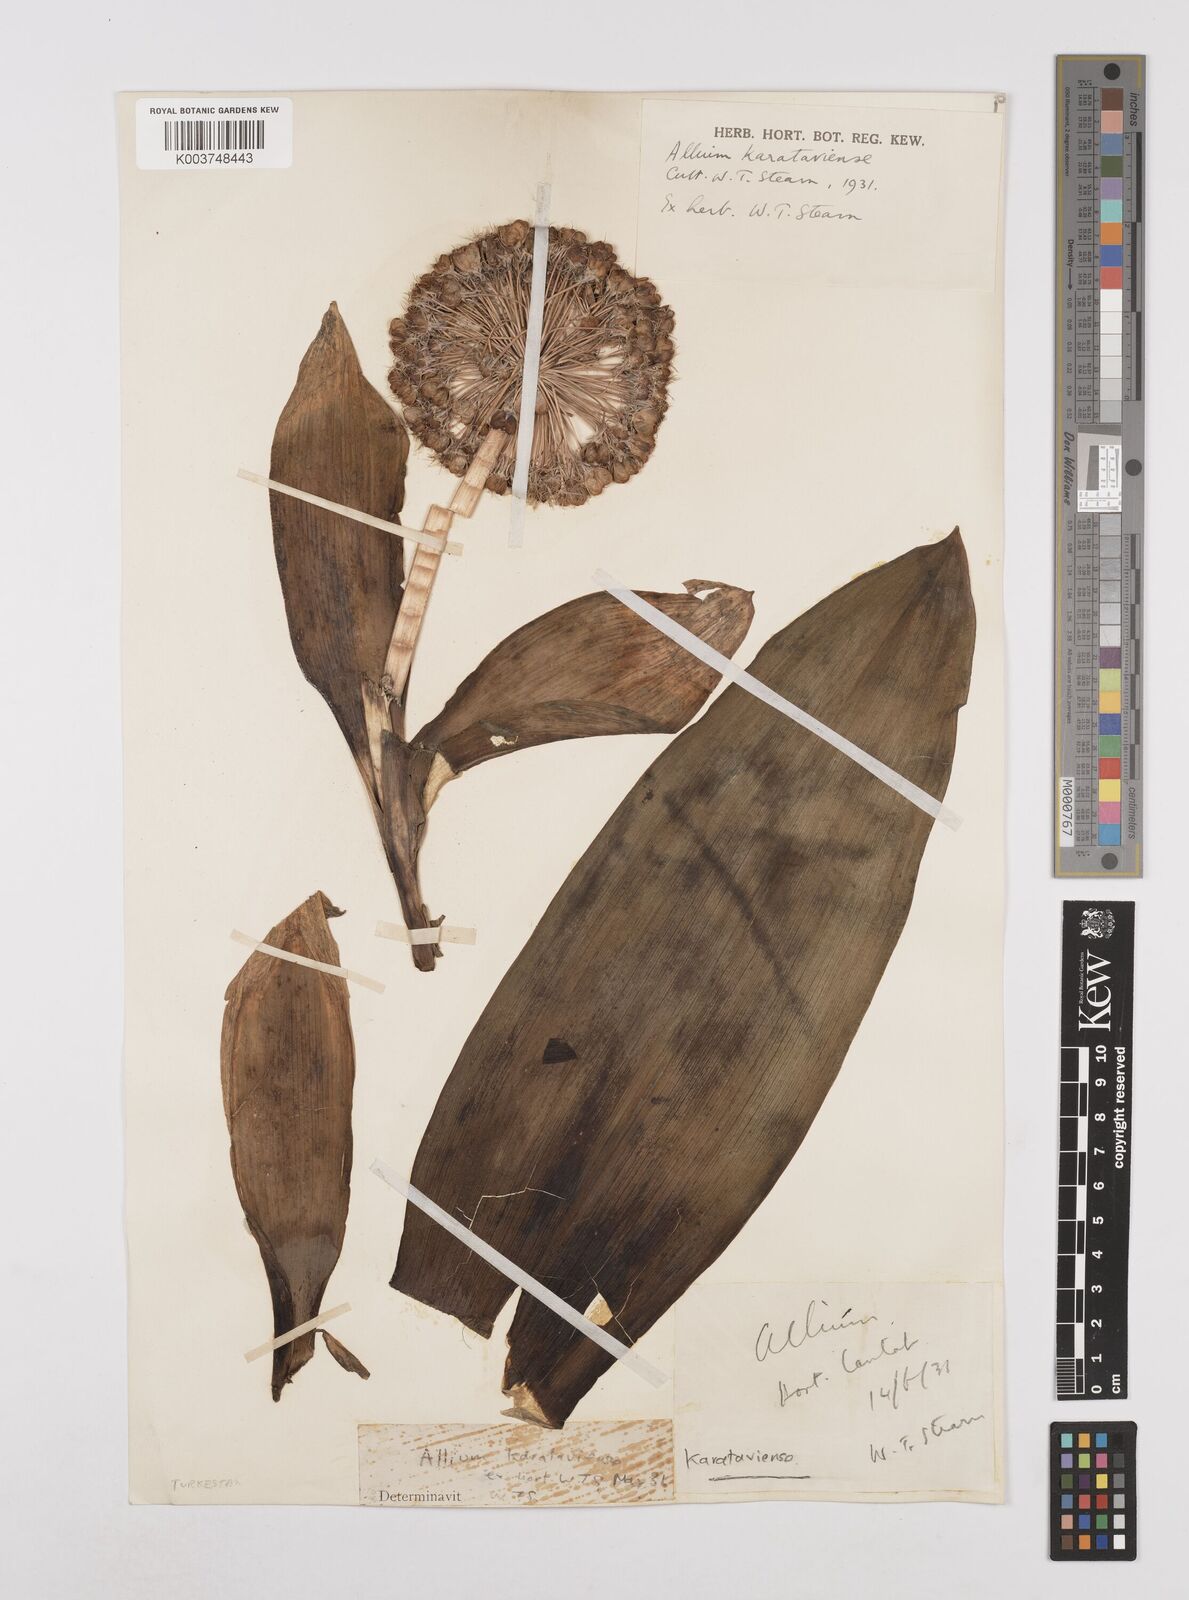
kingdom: Plantae
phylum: Tracheophyta
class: Liliopsida
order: Asparagales
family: Amaryllidaceae
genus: Allium
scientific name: Allium karataviense
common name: Turkestan onion
